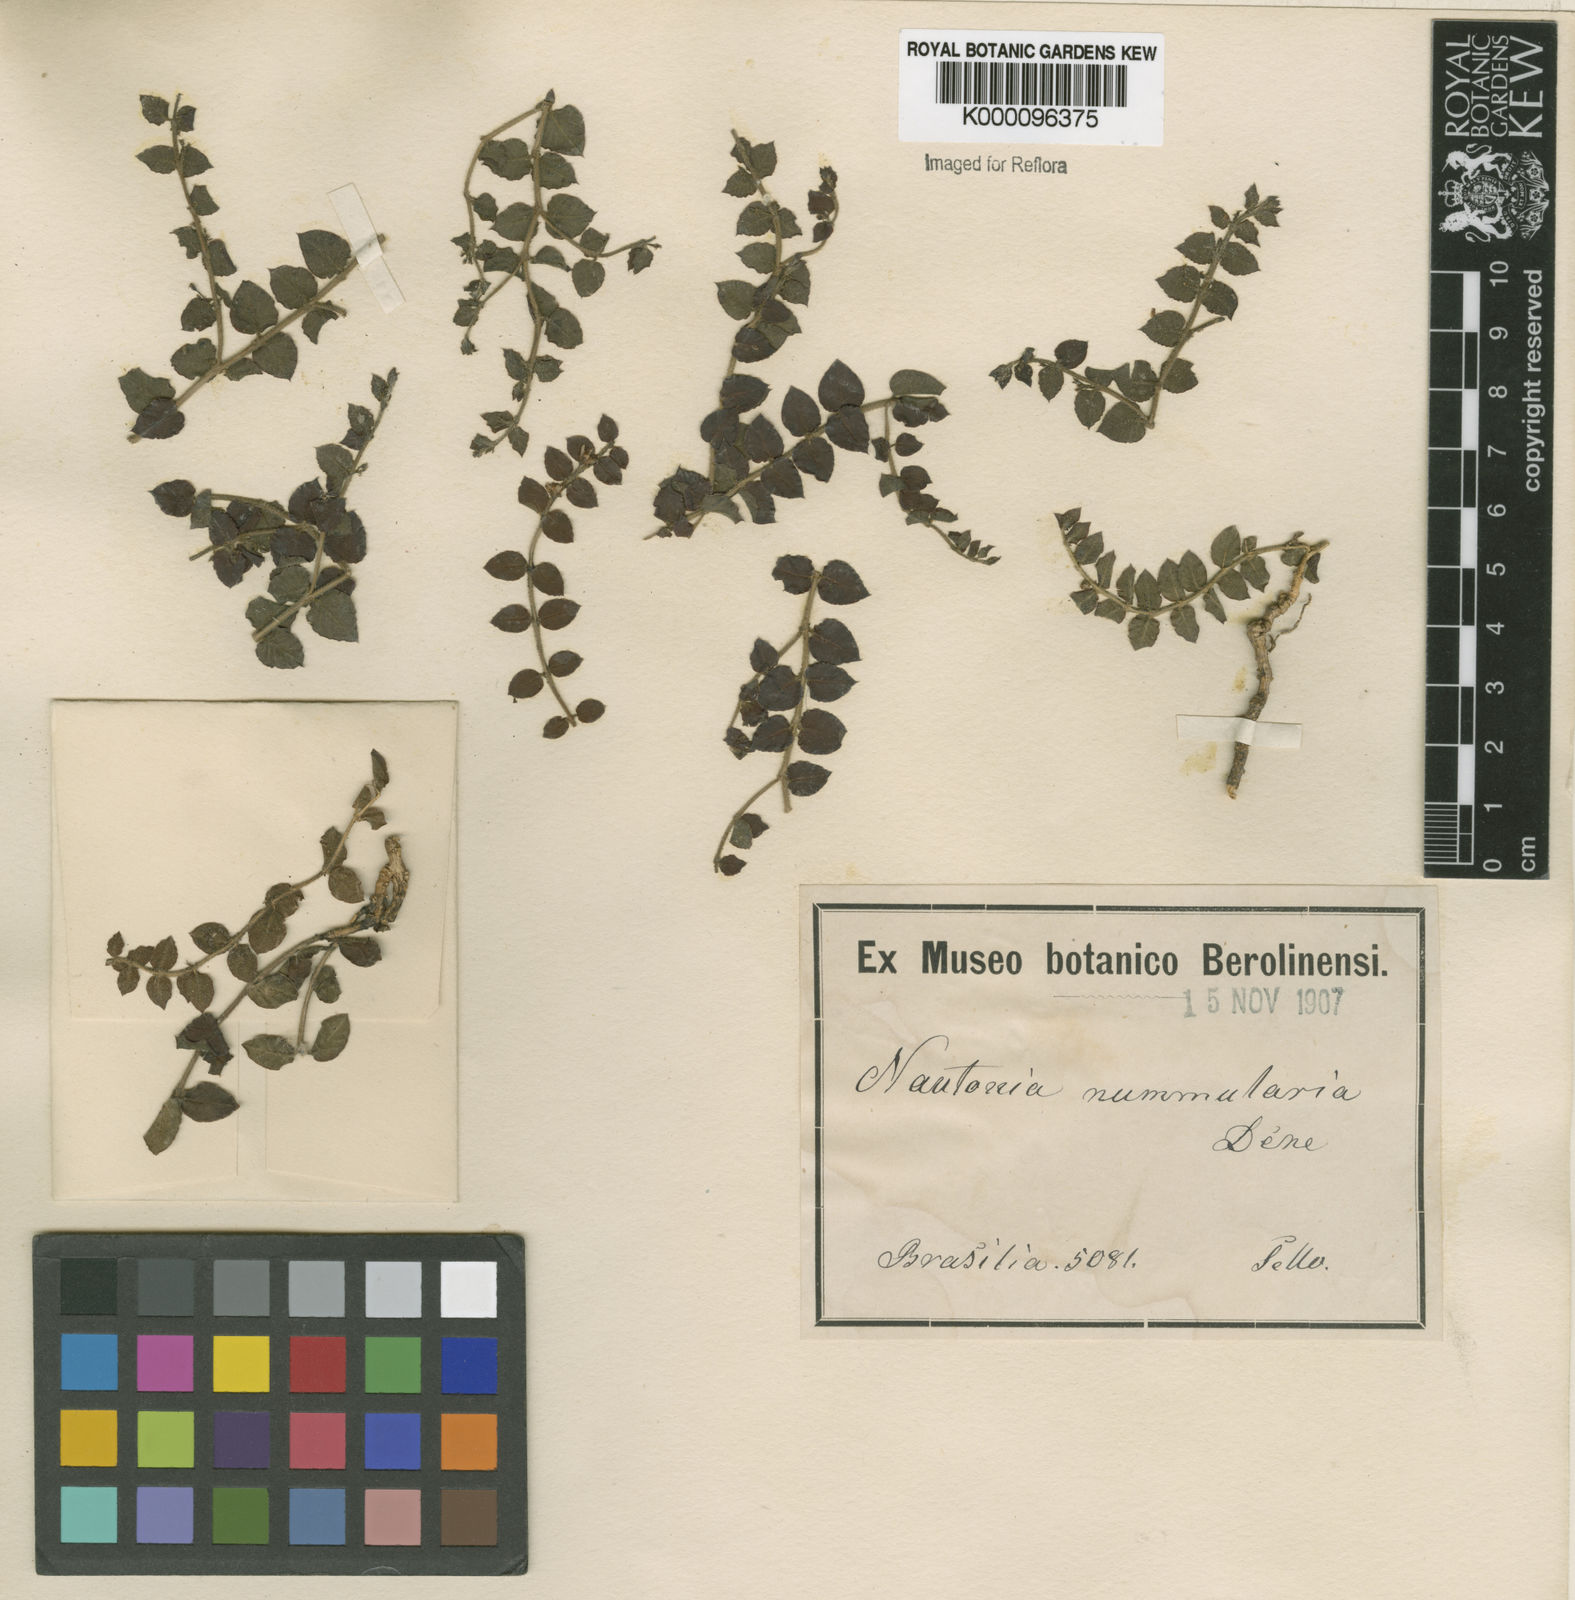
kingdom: Plantae
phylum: Tracheophyta
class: Magnoliopsida
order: Gentianales
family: Apocynaceae
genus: Nautonia
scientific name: Nautonia nummularia
